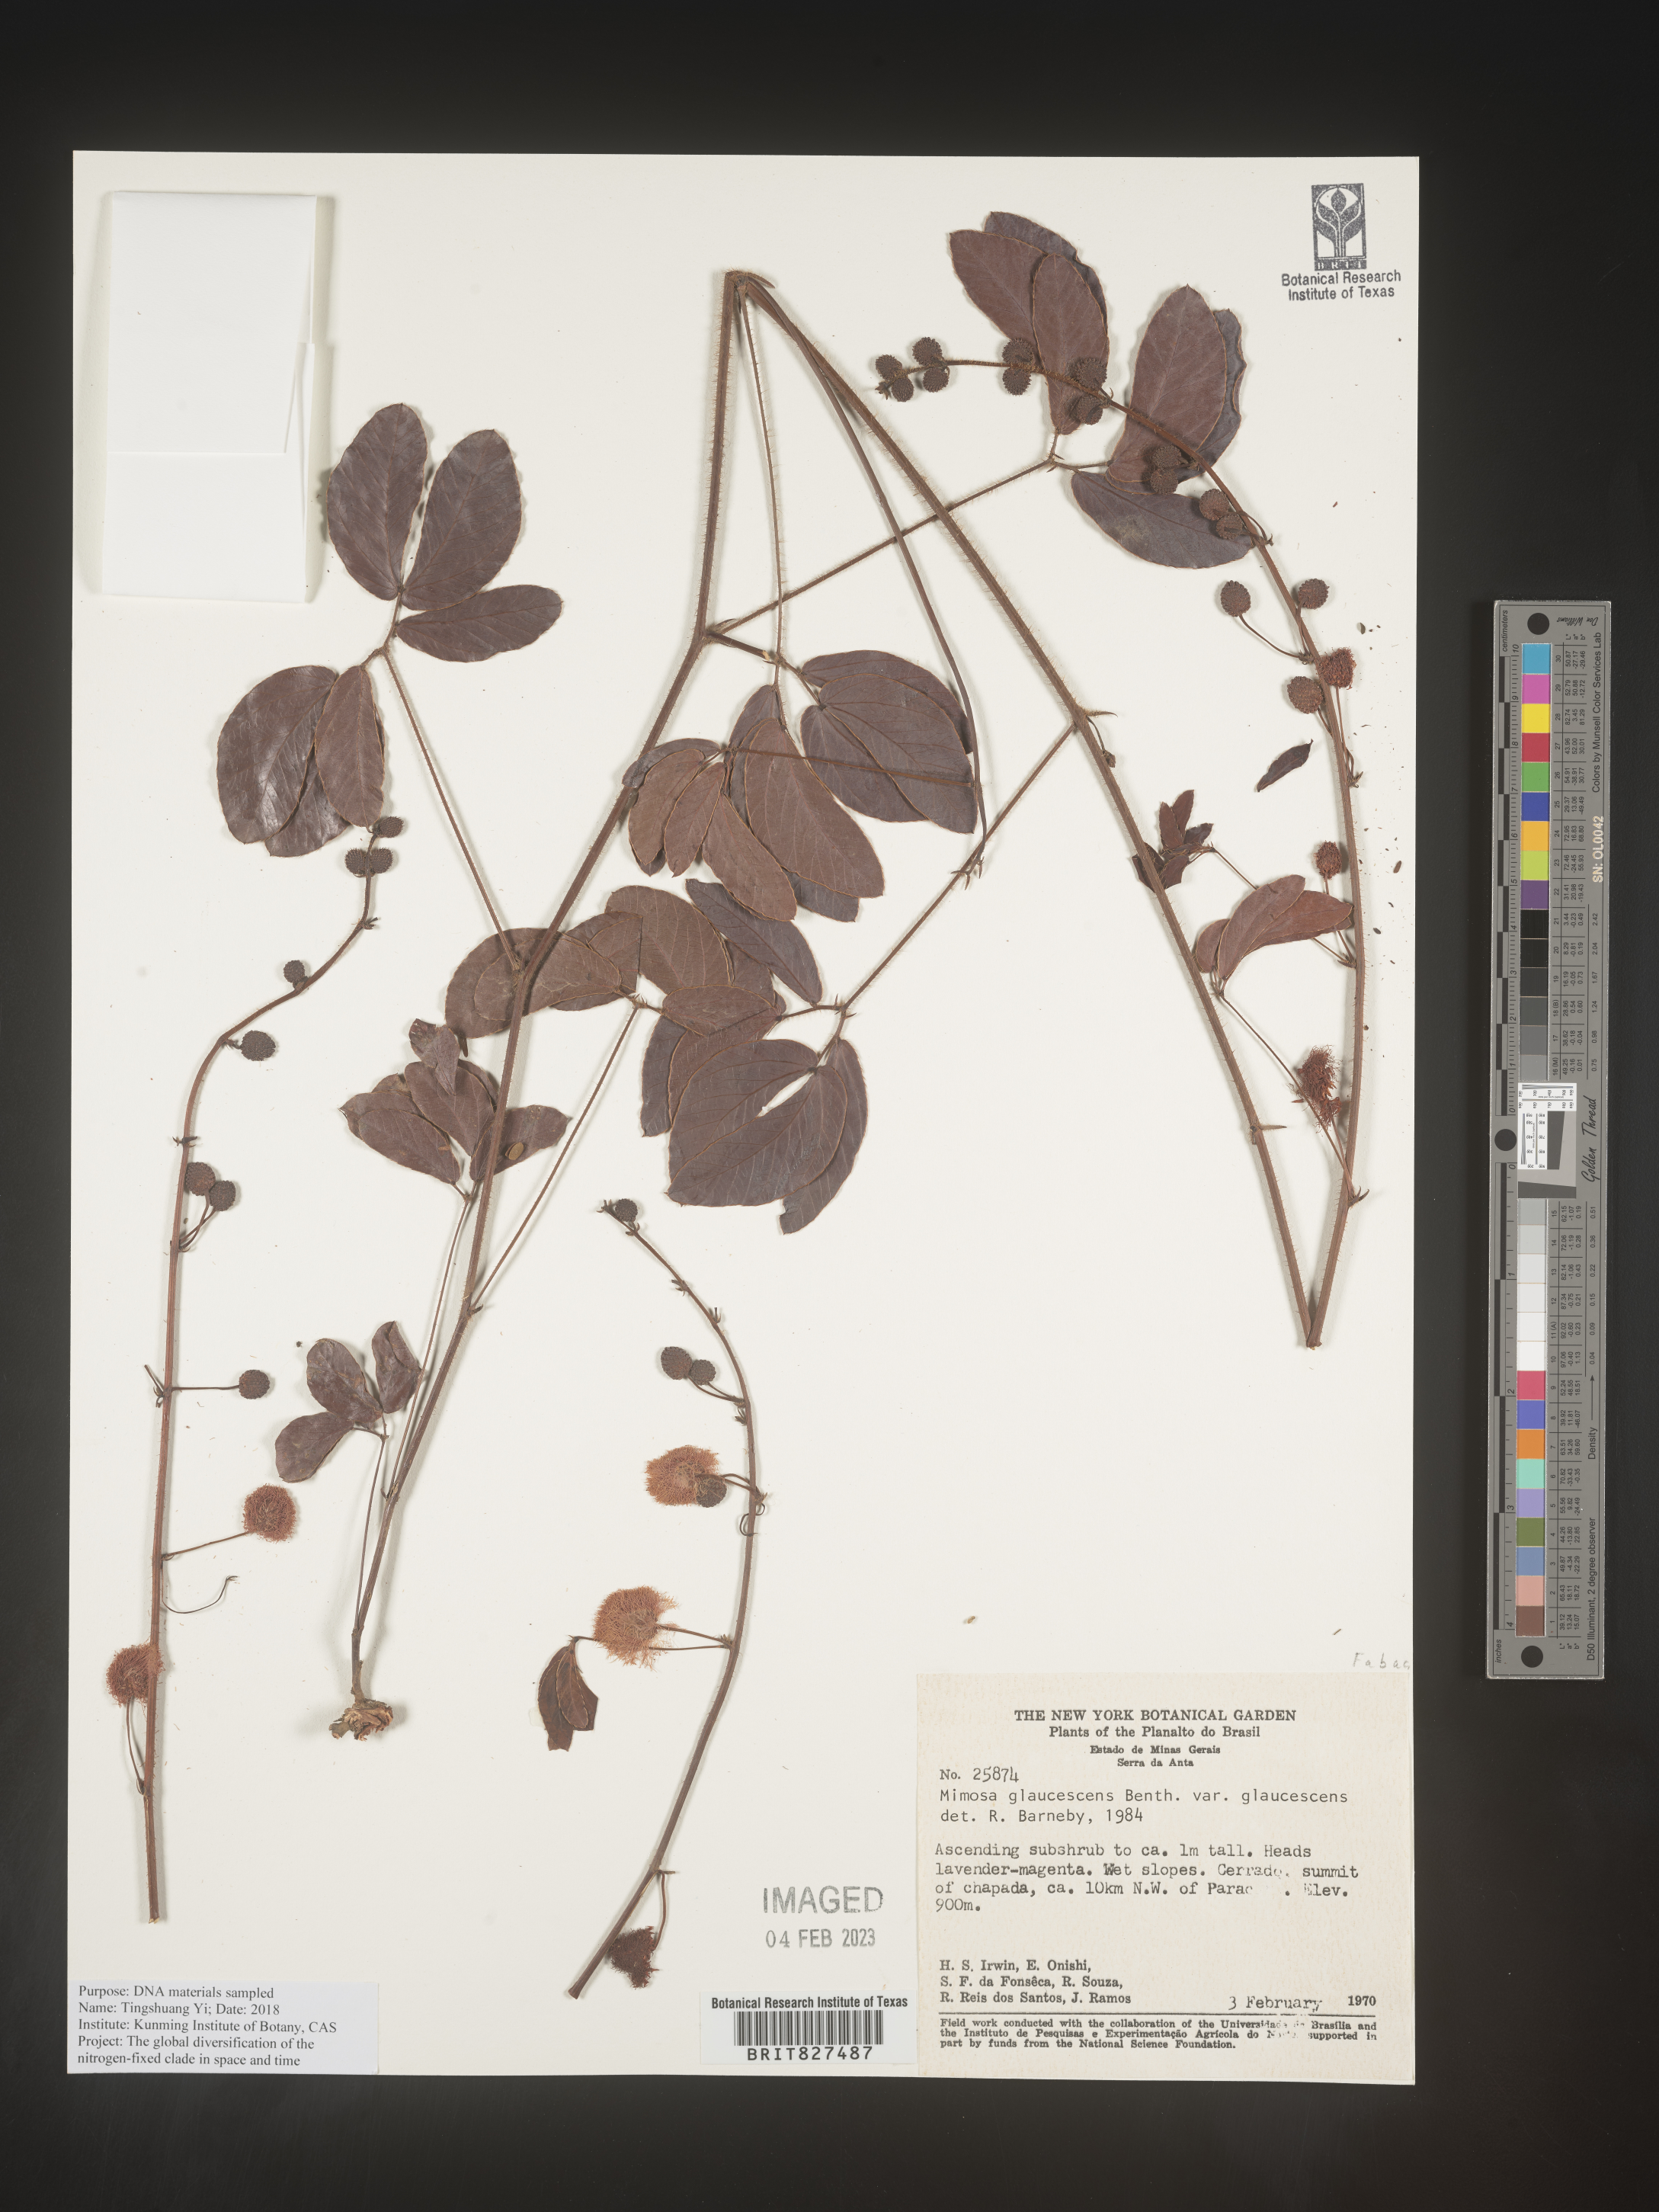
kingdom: Plantae
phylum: Tracheophyta
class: Magnoliopsida
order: Fabales
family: Fabaceae
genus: Mimosa
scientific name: Mimosa
